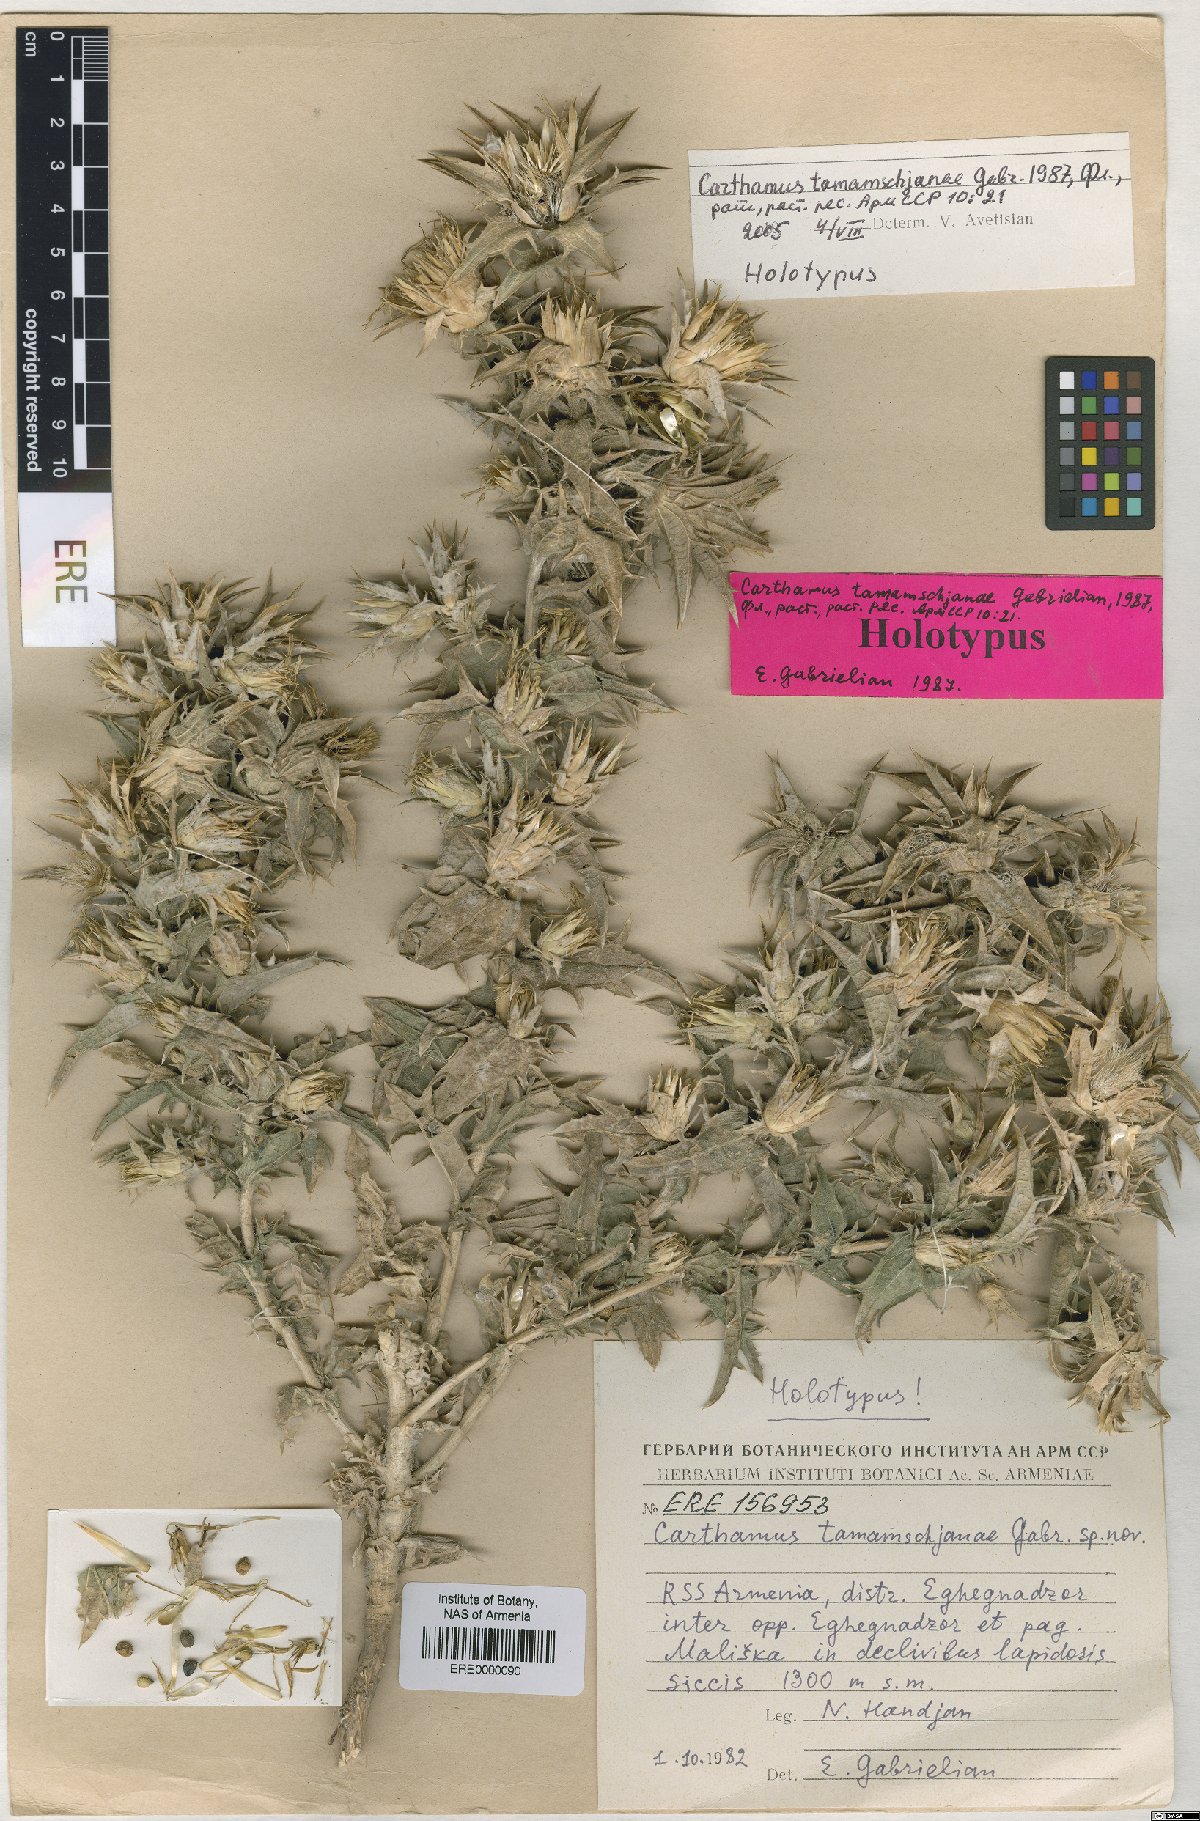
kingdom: Plantae
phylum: Tracheophyta
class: Magnoliopsida
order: Asterales
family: Asteraceae
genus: Carthamus
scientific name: Carthamus tamamschjanae
